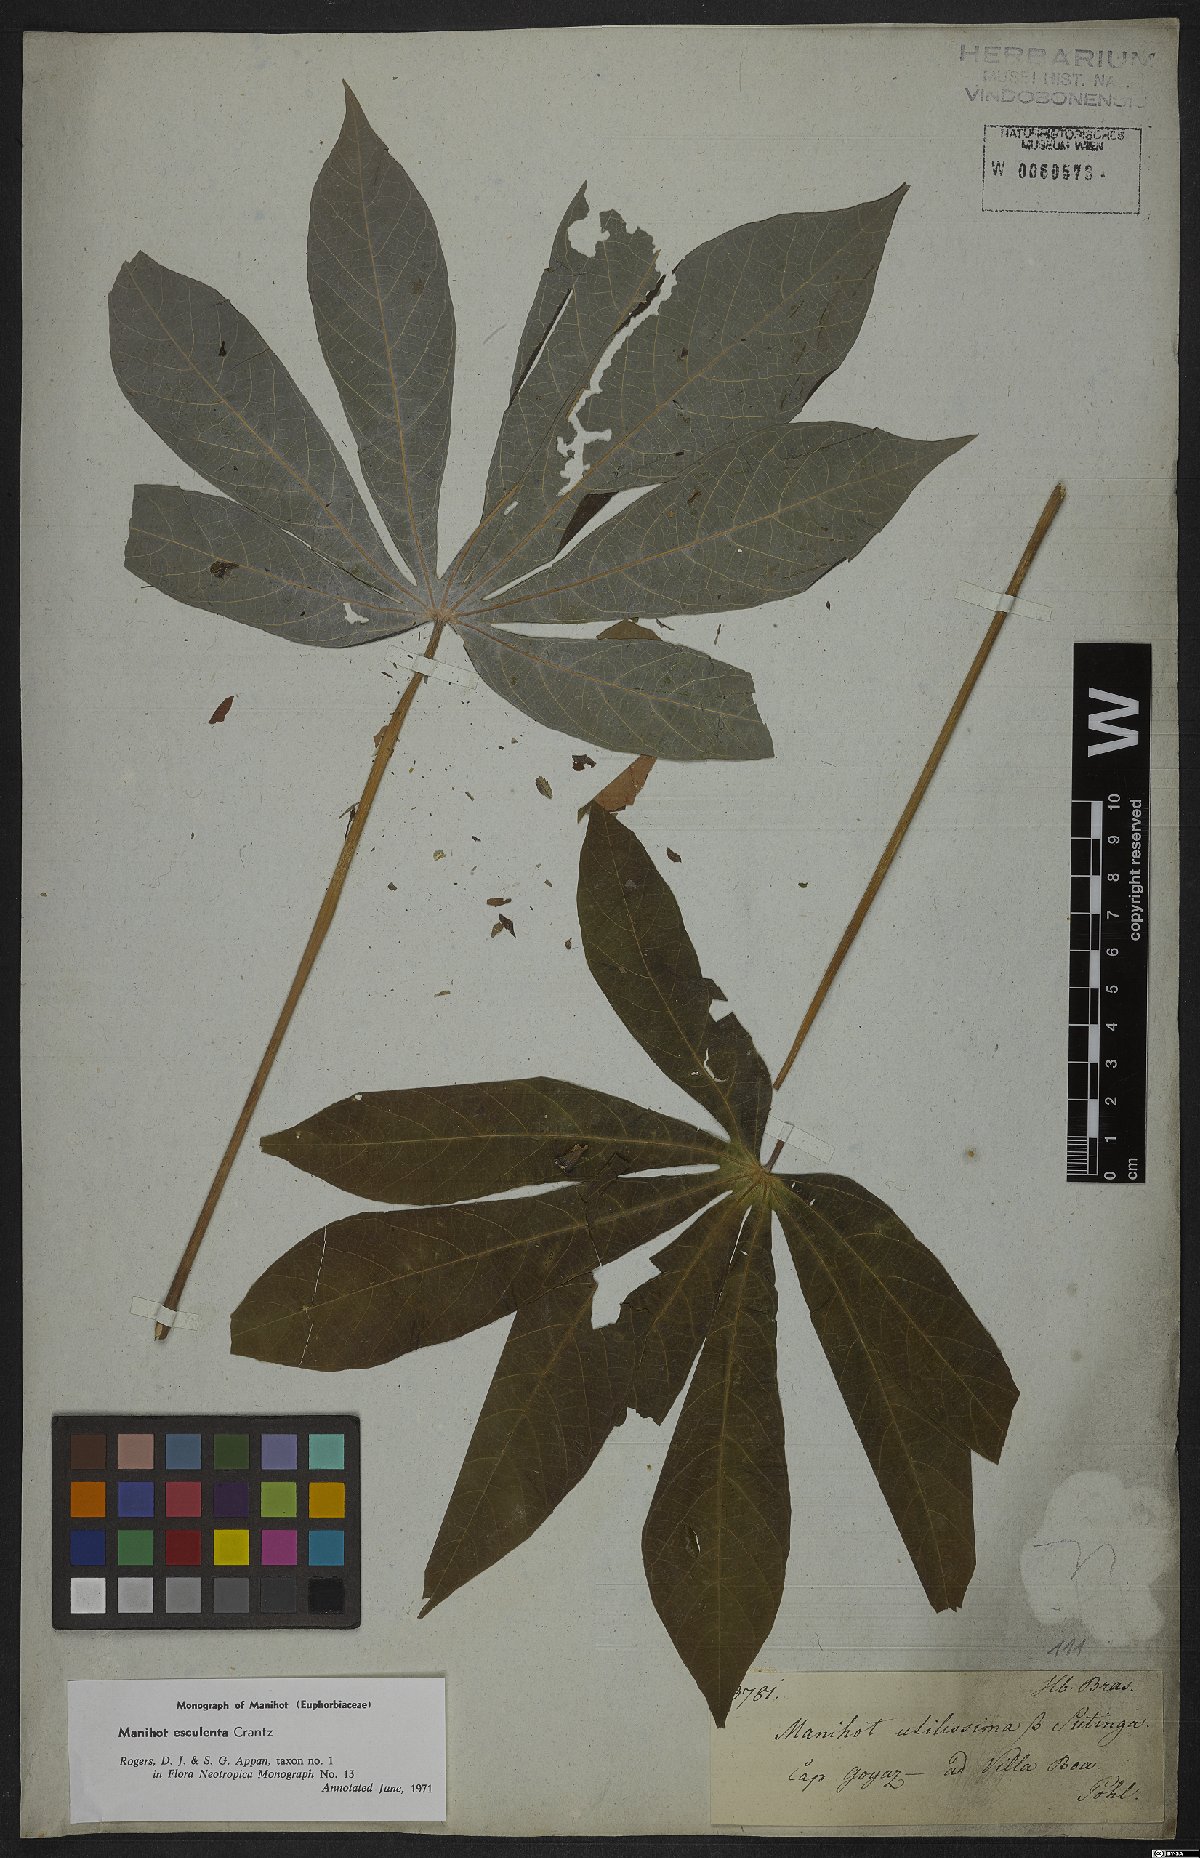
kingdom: Plantae
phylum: Tracheophyta
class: Magnoliopsida
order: Malpighiales
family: Euphorbiaceae
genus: Manihot
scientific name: Manihot esculenta
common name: Cassava
